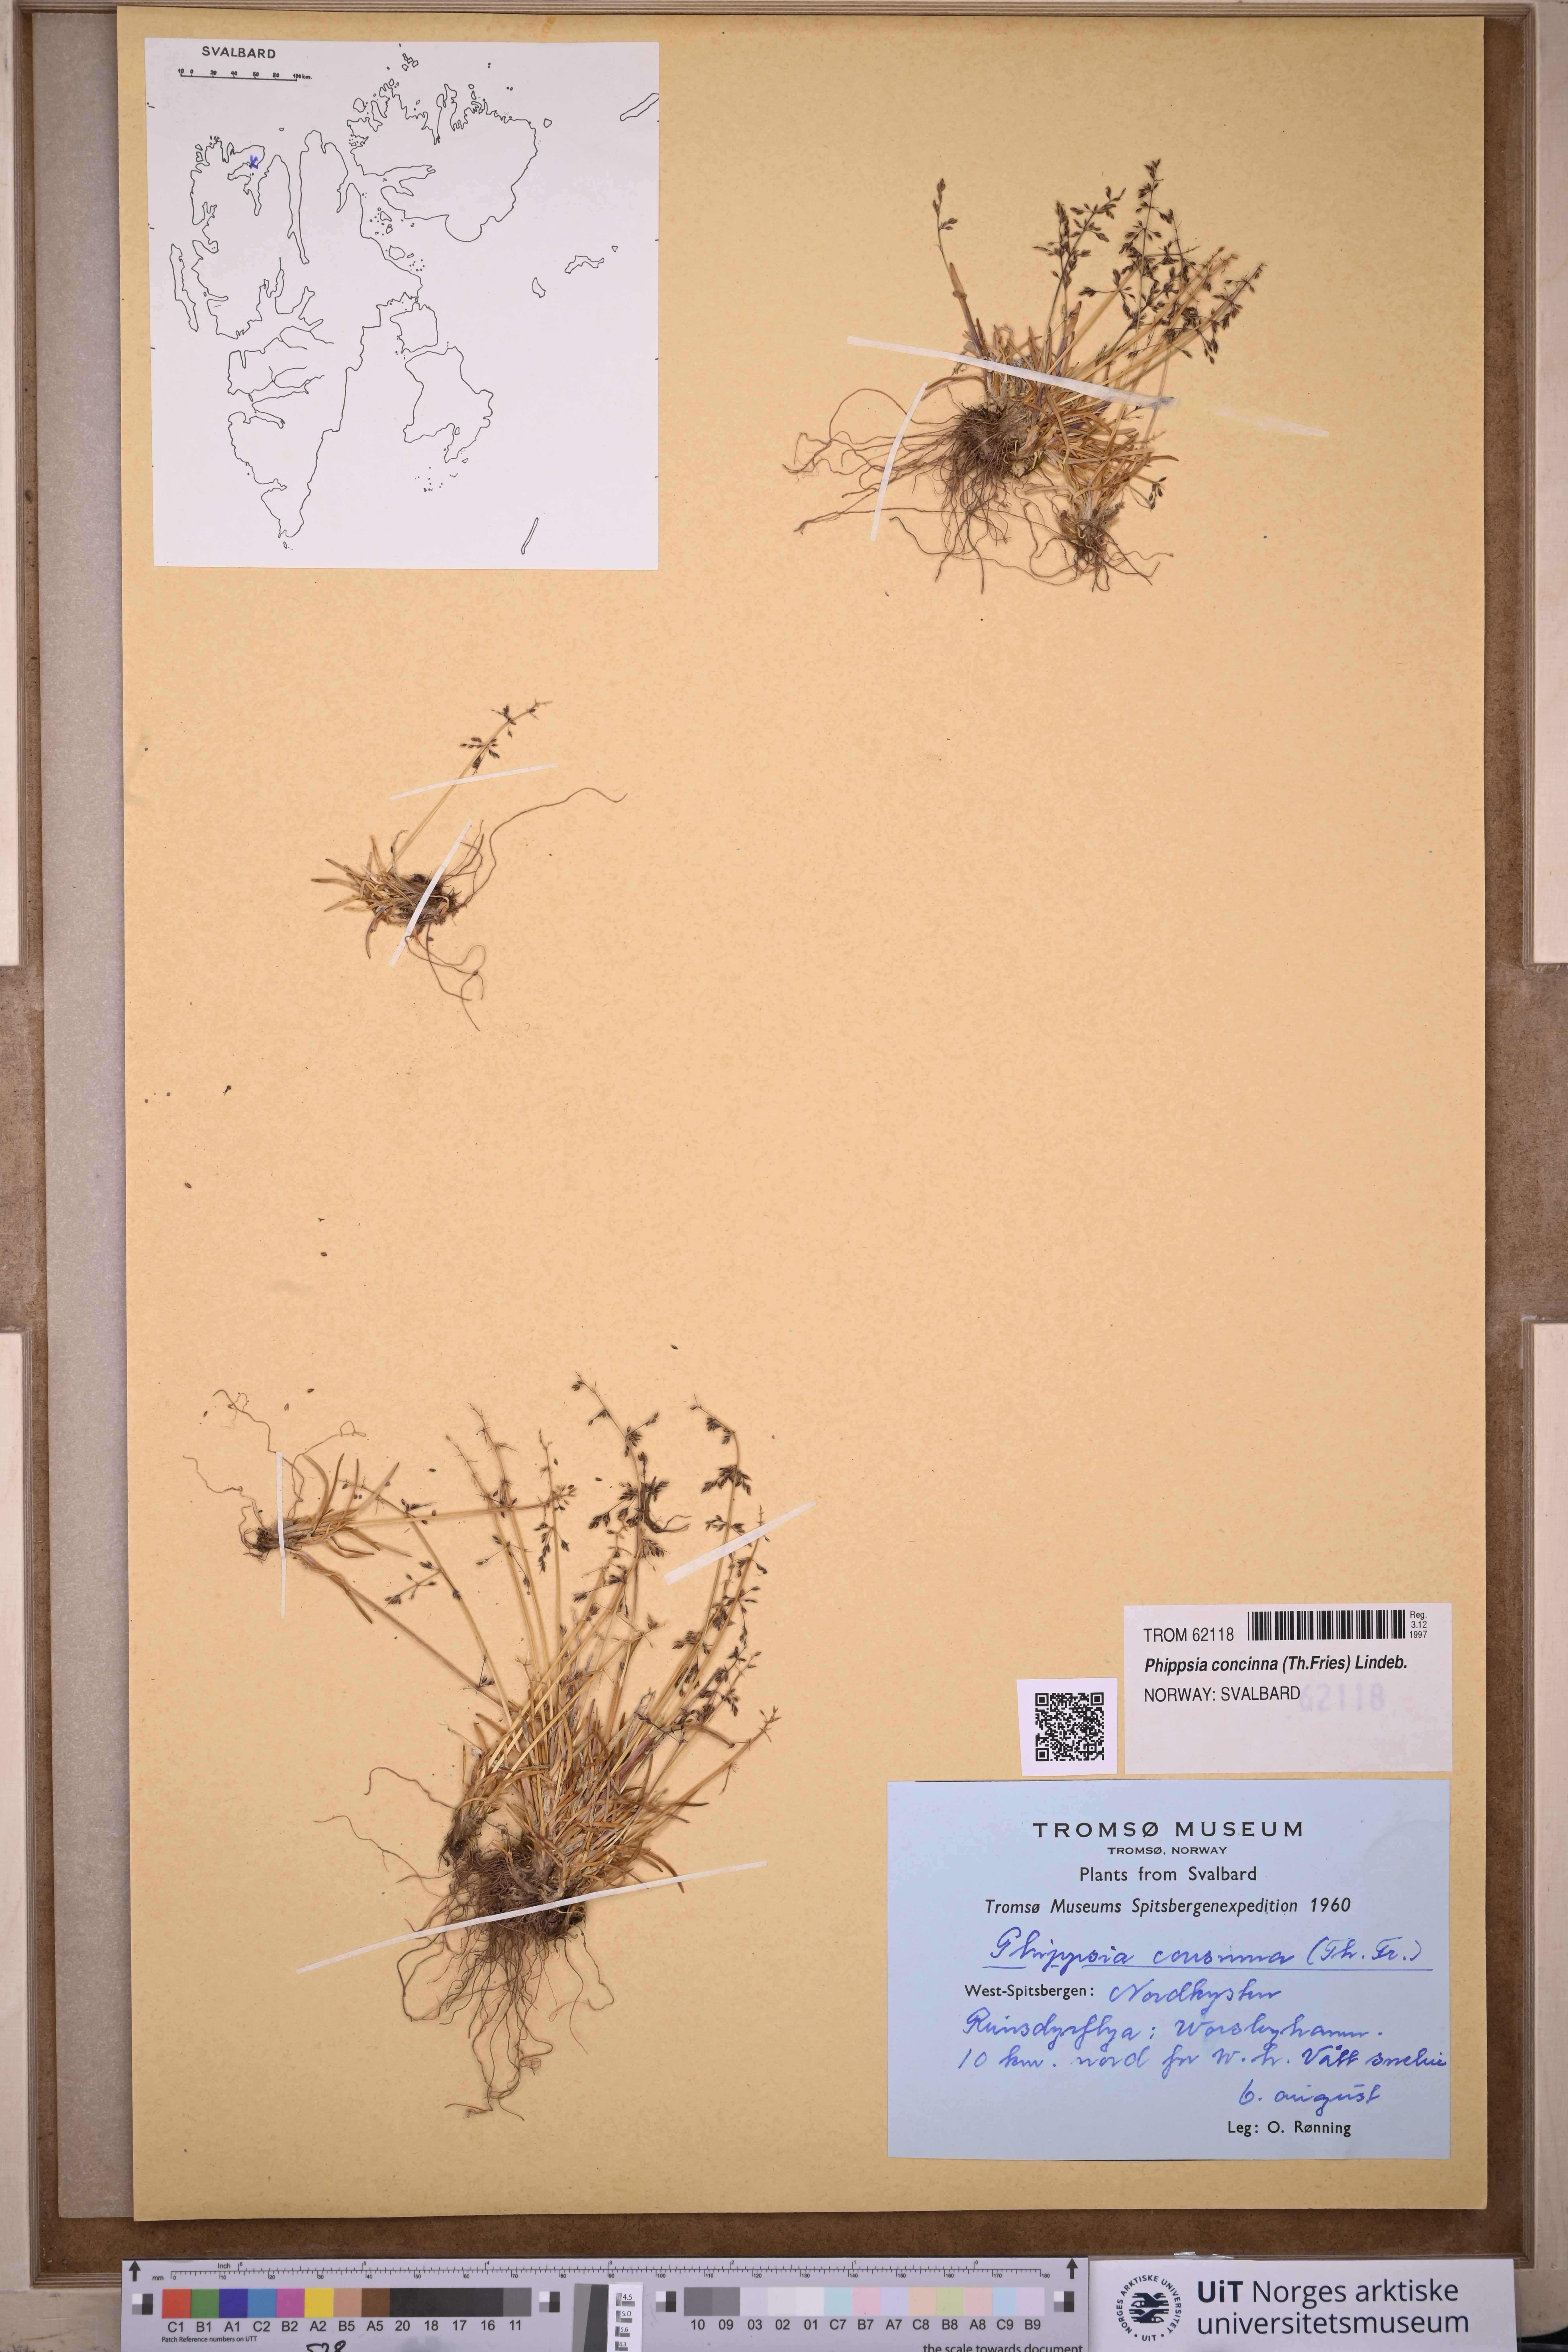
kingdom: Plantae
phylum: Tracheophyta
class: Liliopsida
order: Poales
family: Poaceae
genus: Phippsia
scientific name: Phippsia concinna
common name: Snowgrass
